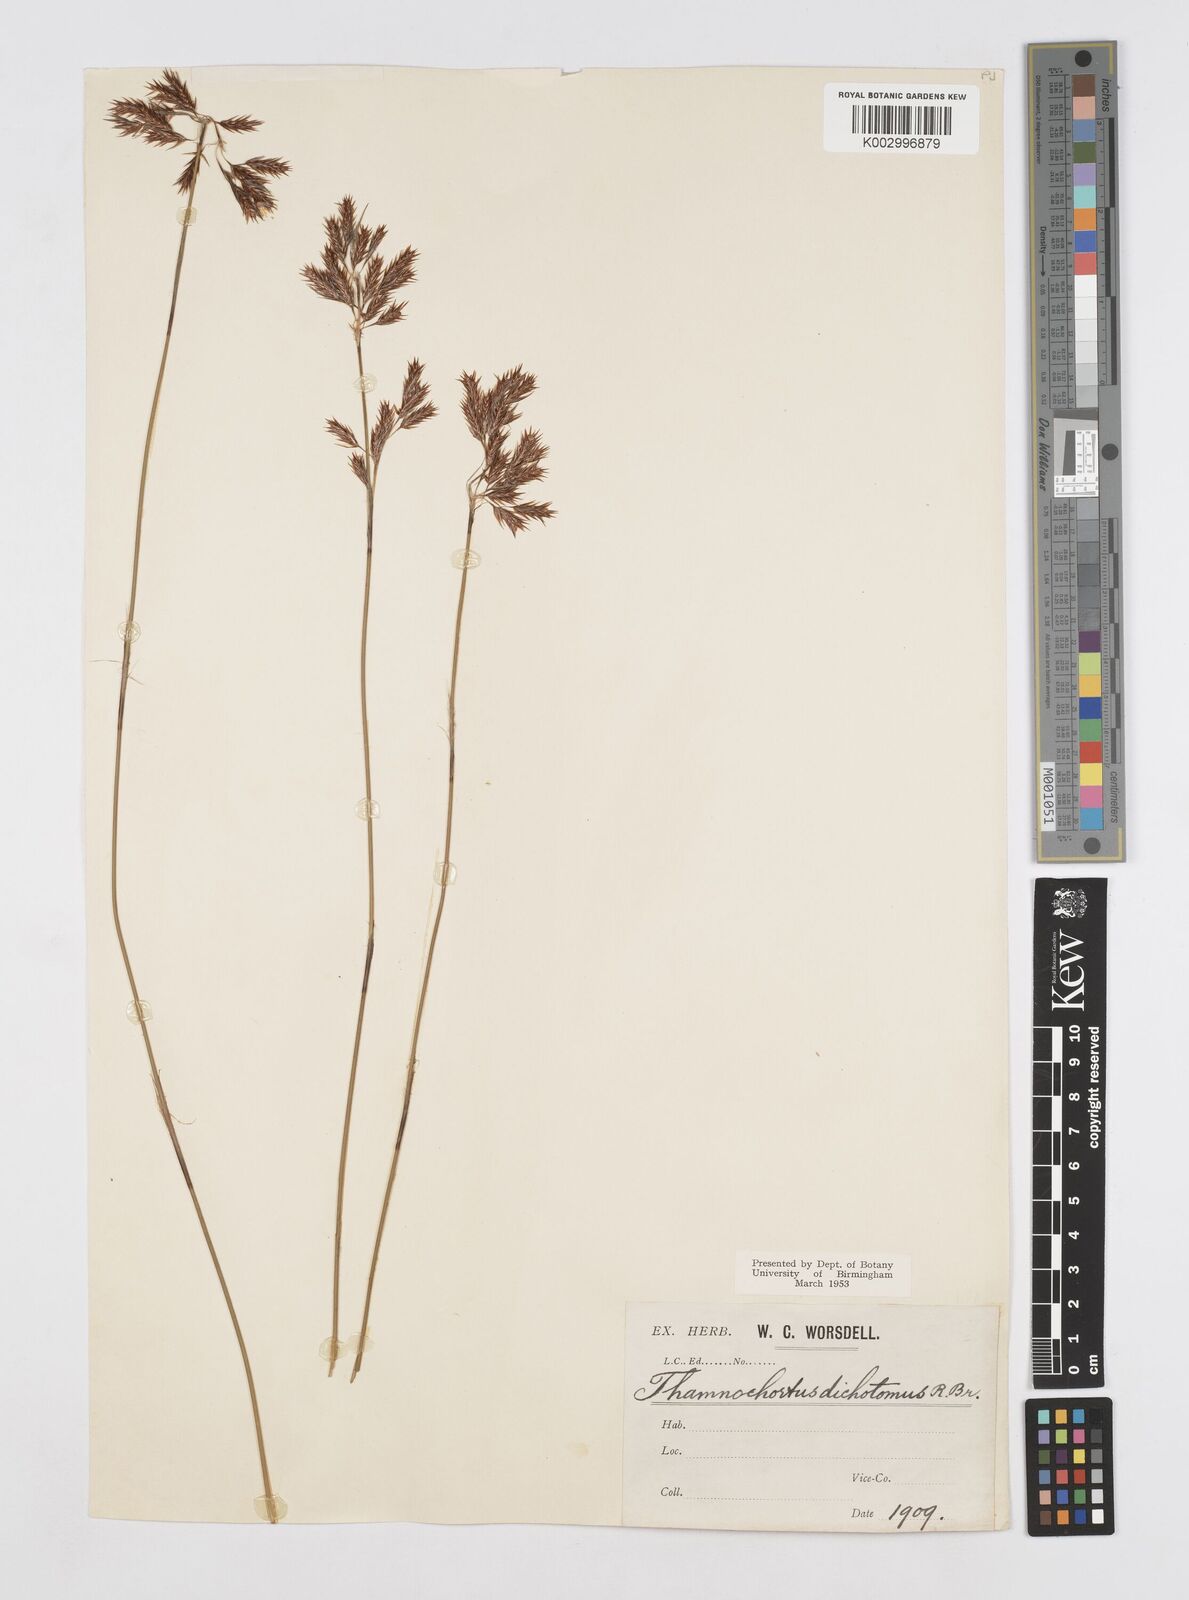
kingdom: Plantae
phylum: Tracheophyta
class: Liliopsida
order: Poales
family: Restionaceae
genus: Thamnochortus
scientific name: Thamnochortus lucens
